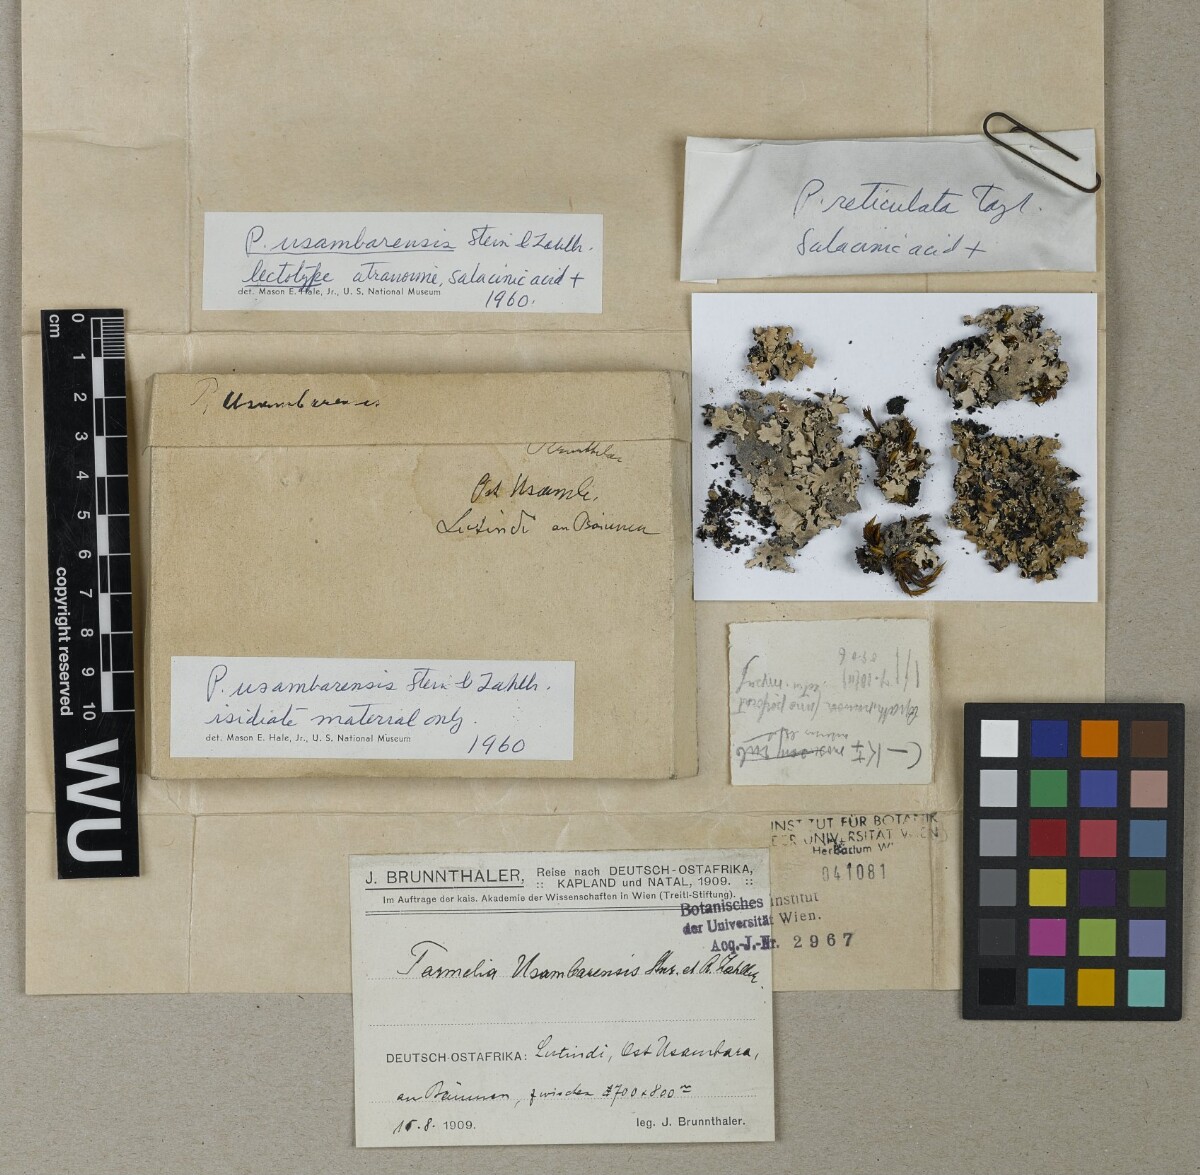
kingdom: Fungi
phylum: Ascomycota
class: Lecanoromycetes
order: Lecanorales
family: Parmeliaceae
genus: Pseudoparmelia
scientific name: Pseudoparmelia usambarensis
